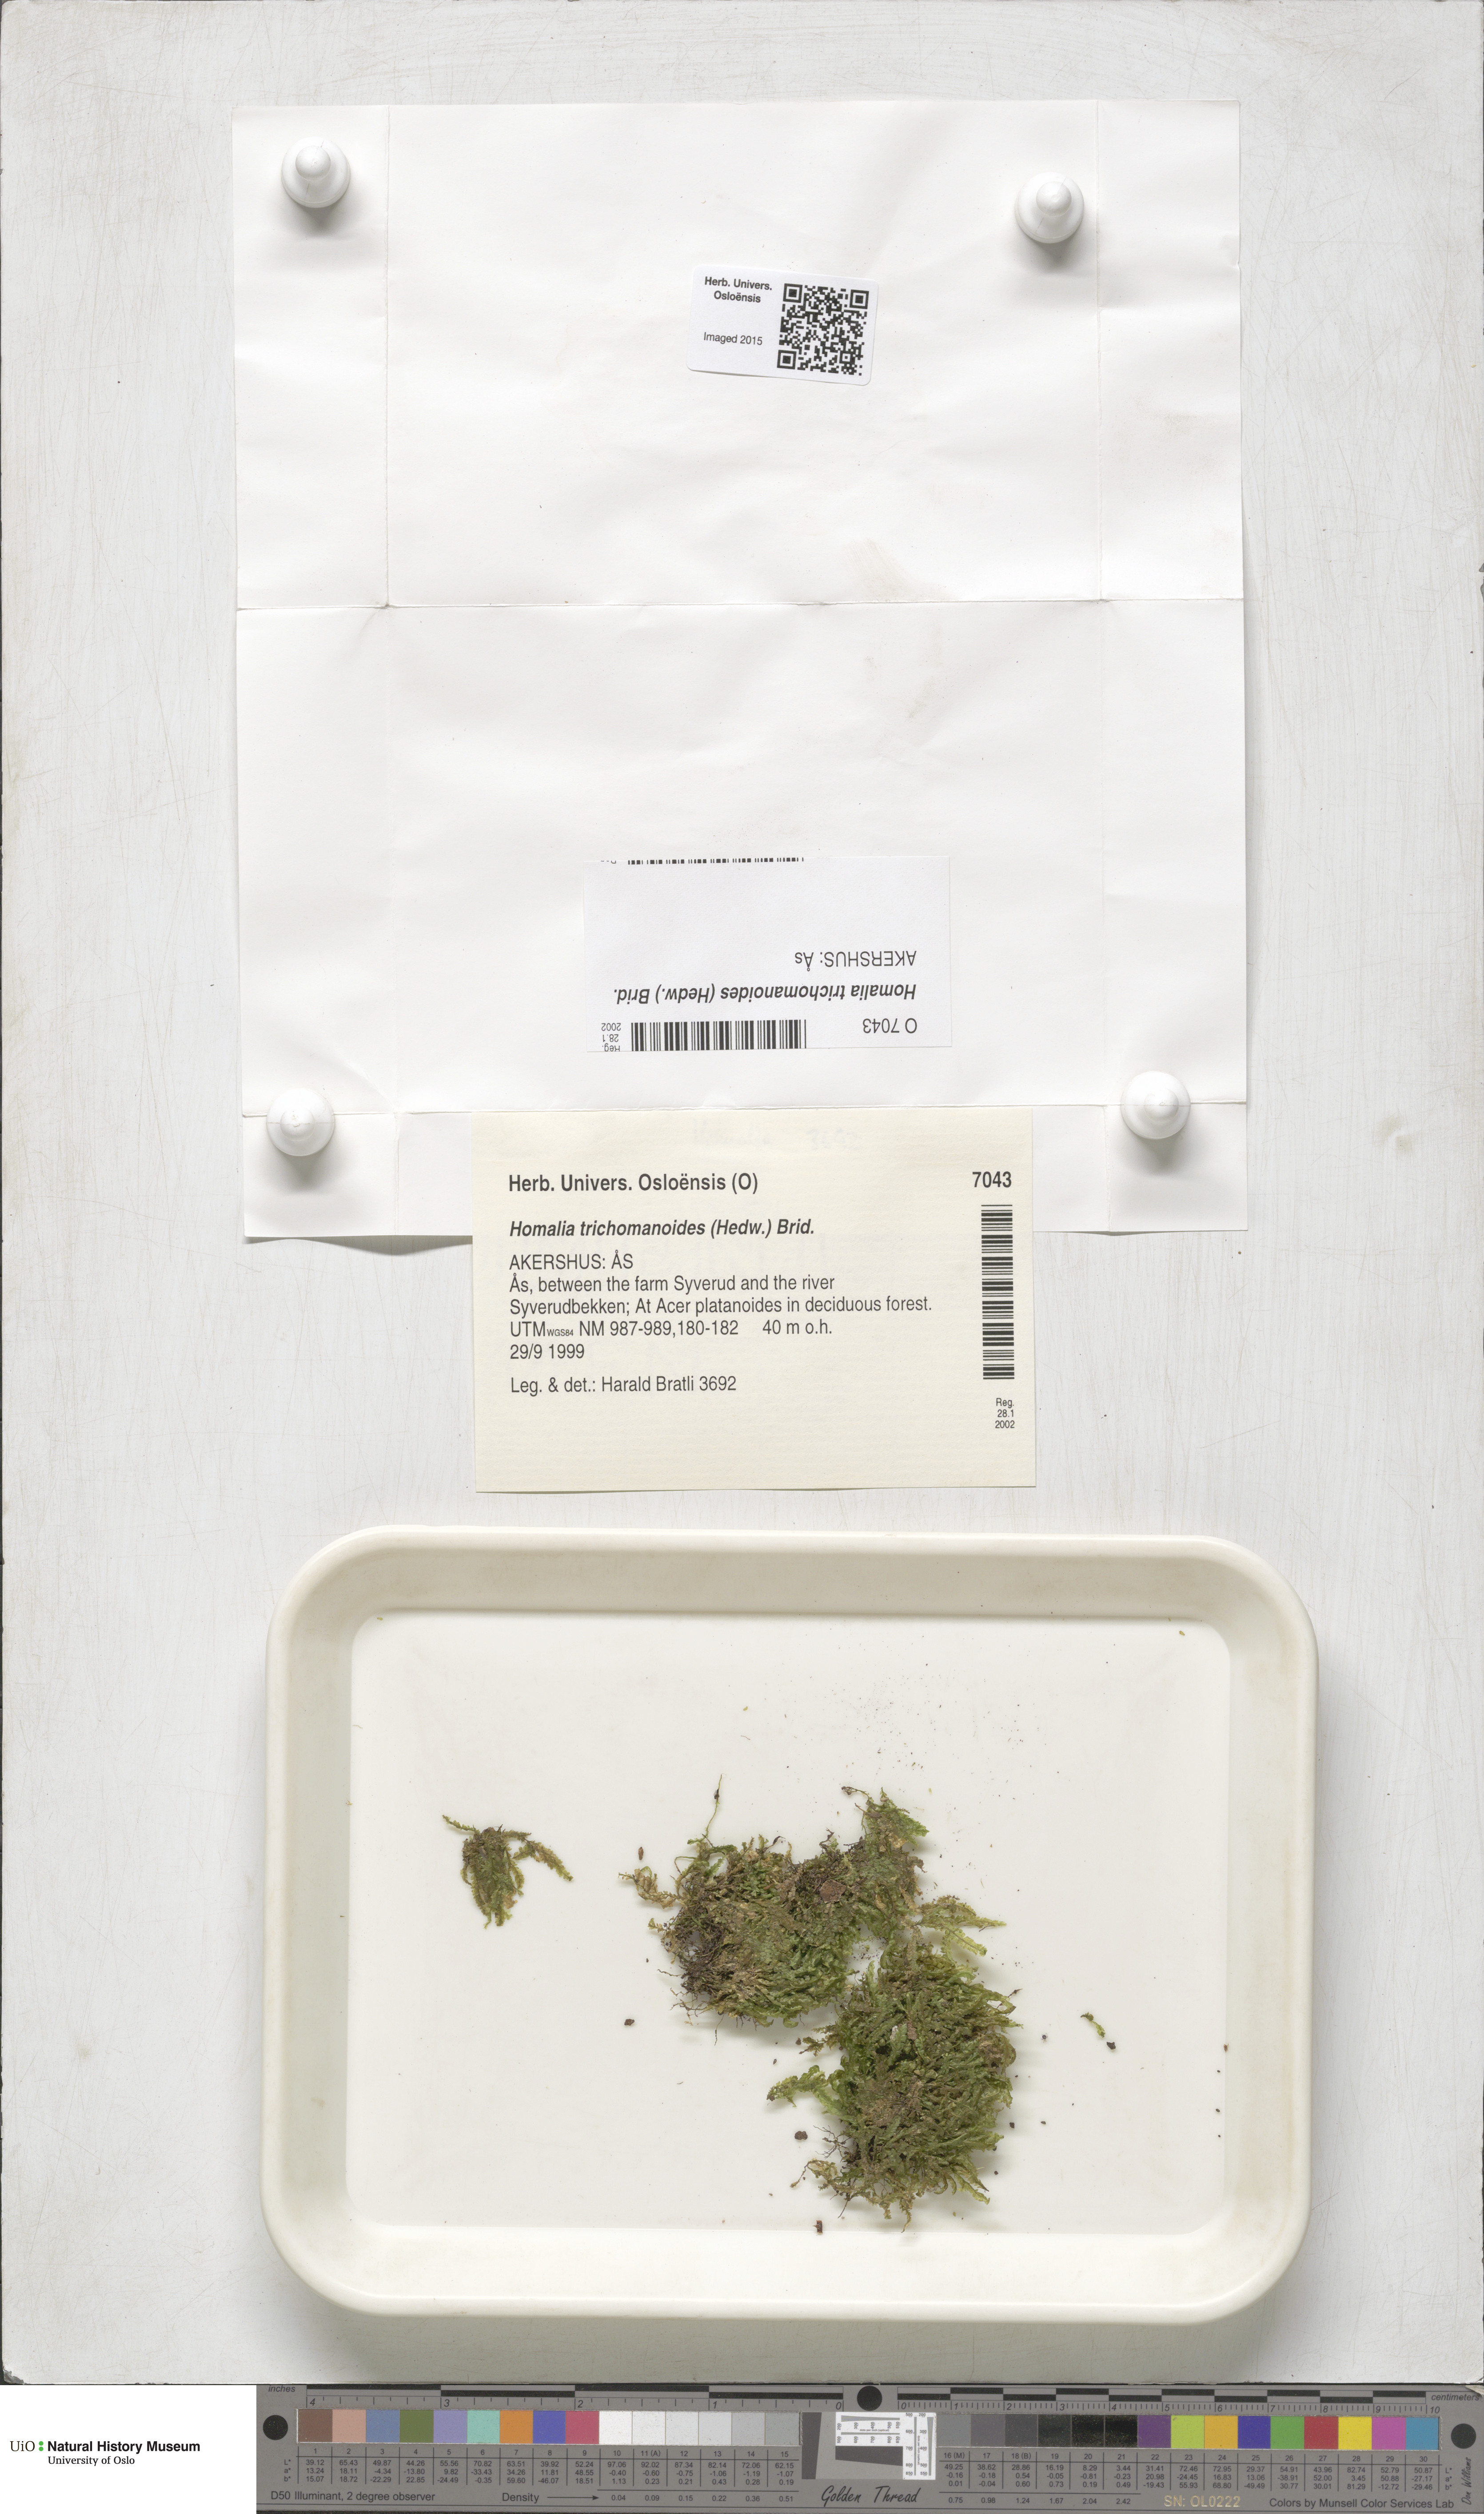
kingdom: Plantae
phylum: Bryophyta
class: Bryopsida
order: Hypnales
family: Neckeraceae
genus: Homalia
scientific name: Homalia trichomanoides
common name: Lime homalia moss
